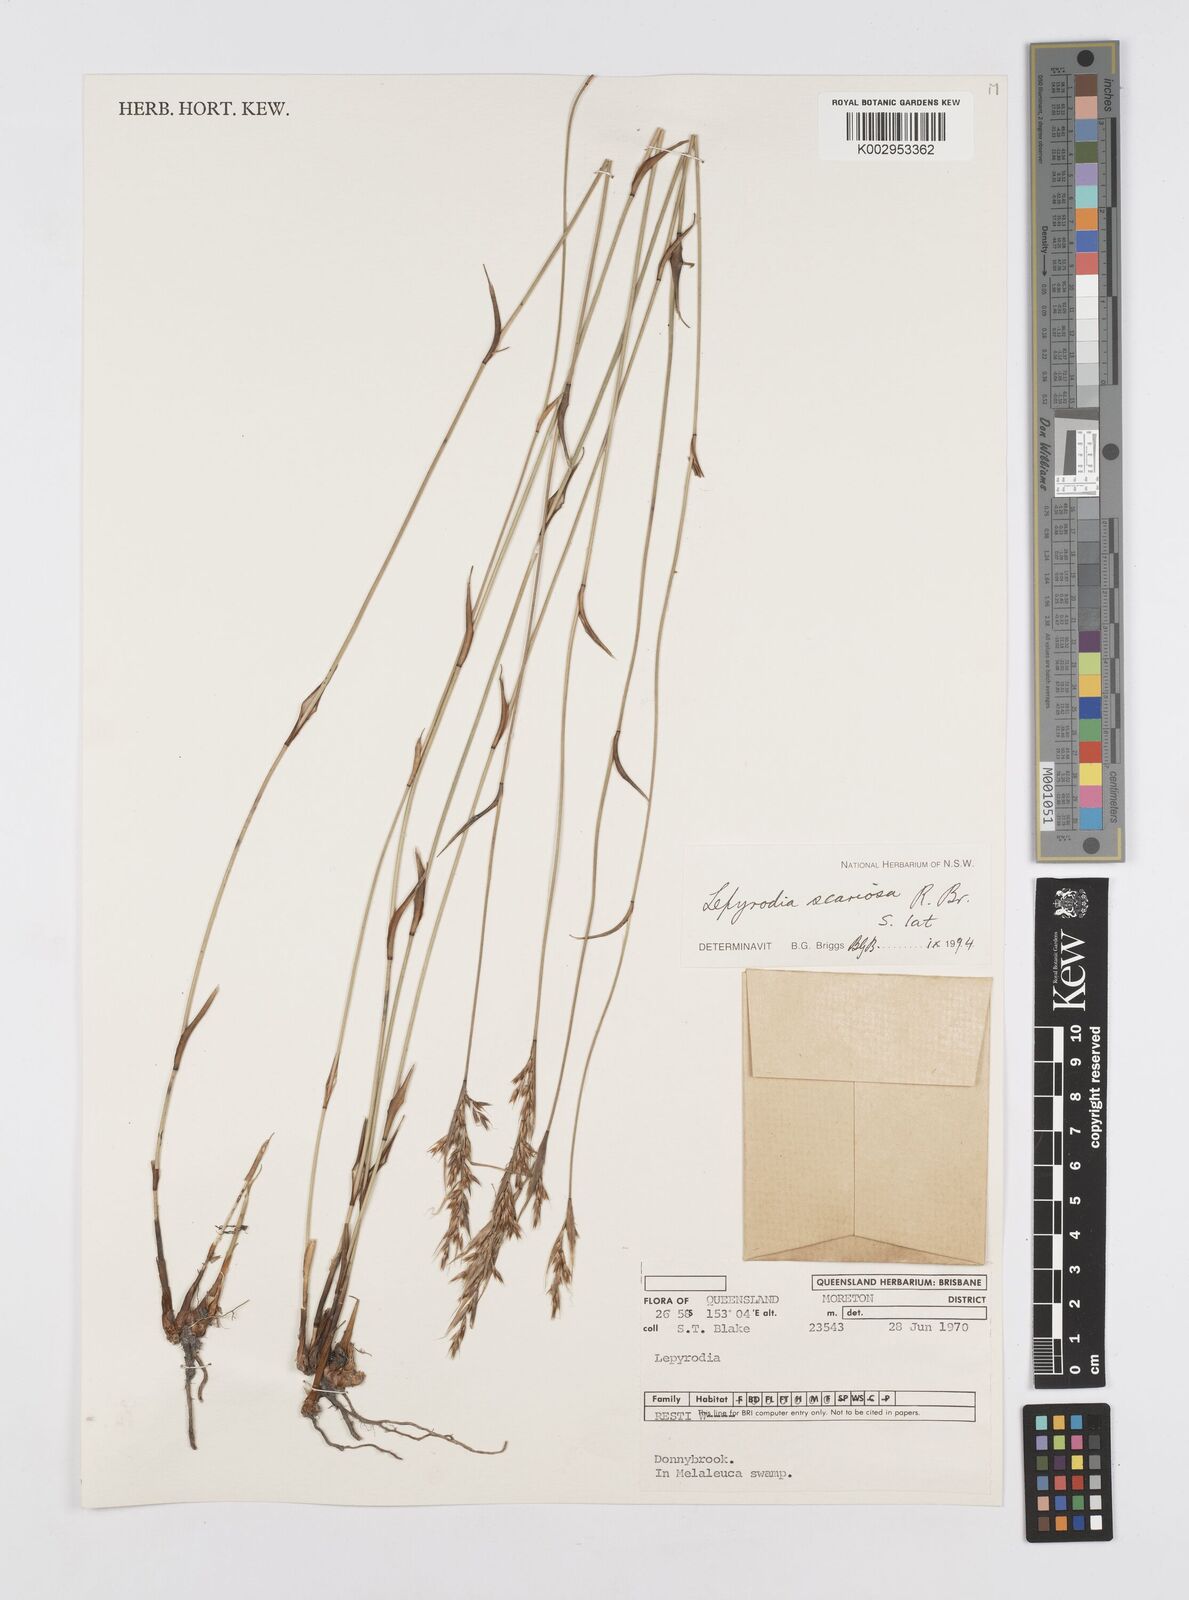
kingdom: Plantae
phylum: Tracheophyta
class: Liliopsida
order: Poales
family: Restionaceae
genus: Lepyrodia
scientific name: Lepyrodia scariosa
